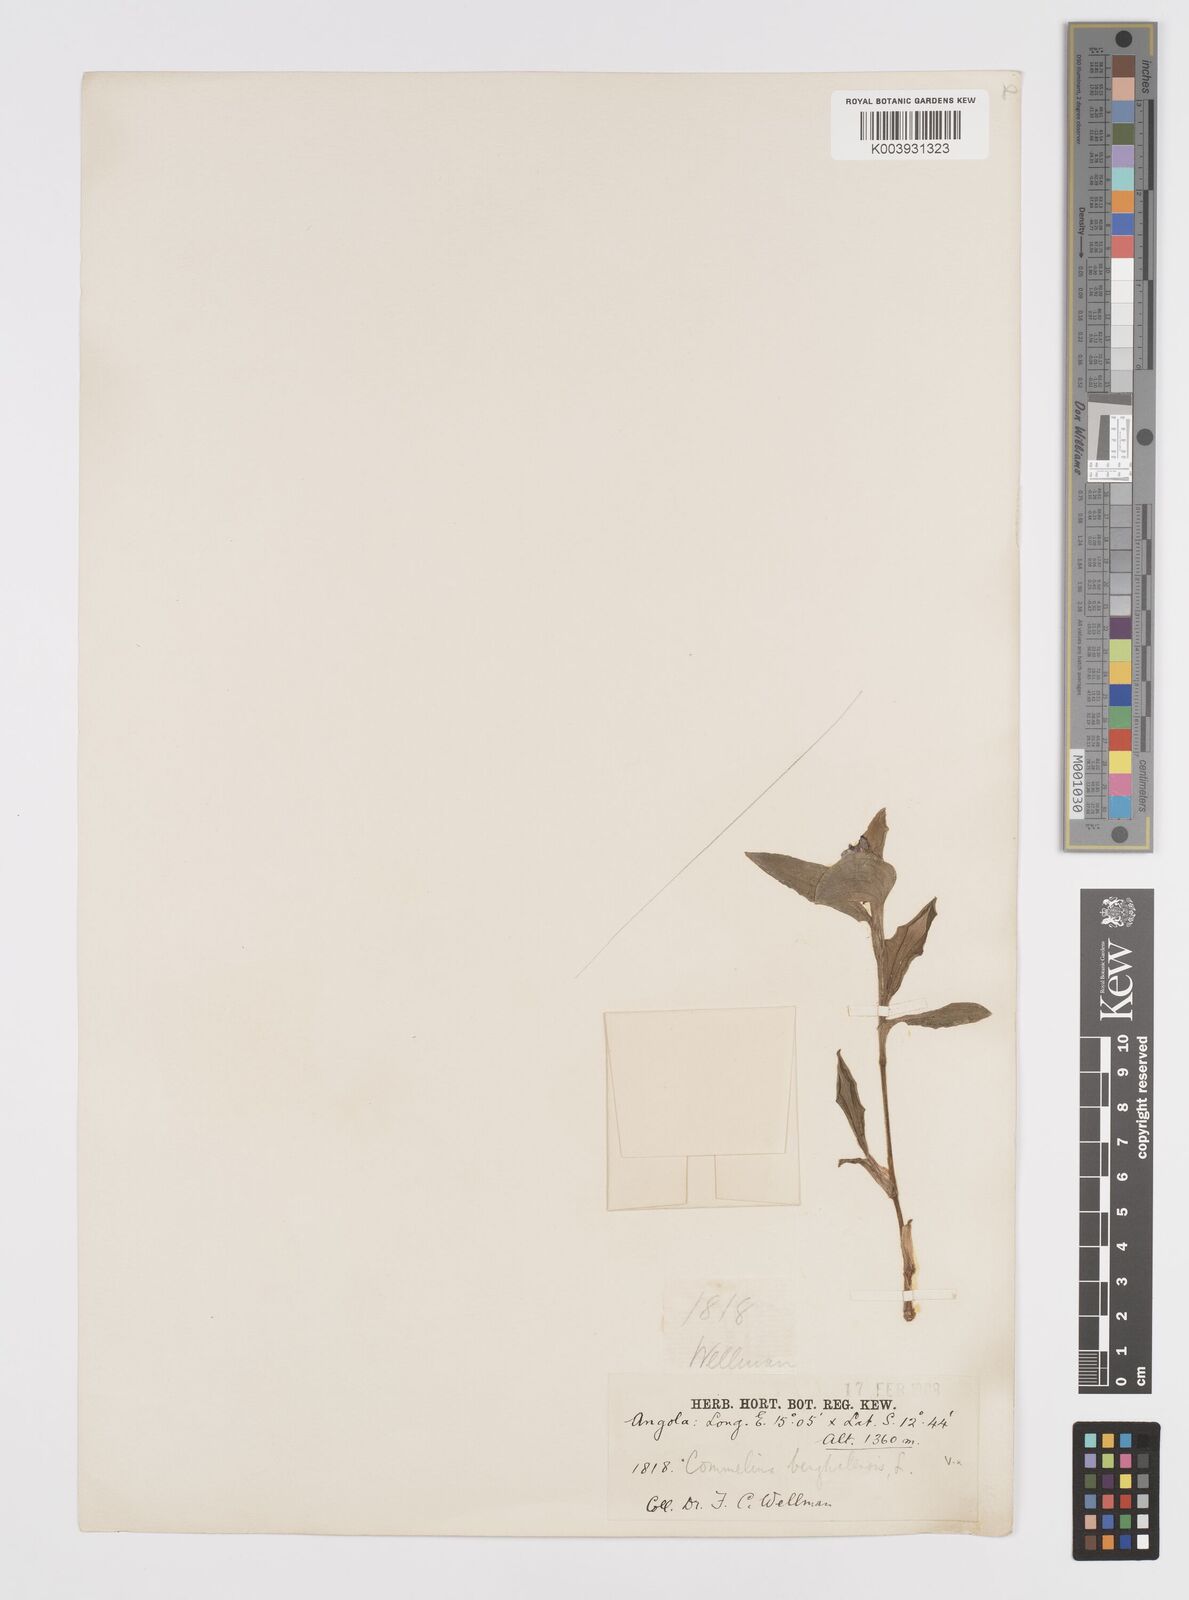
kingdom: Plantae
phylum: Tracheophyta
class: Liliopsida
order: Commelinales
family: Commelinaceae
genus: Commelina
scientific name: Commelina
